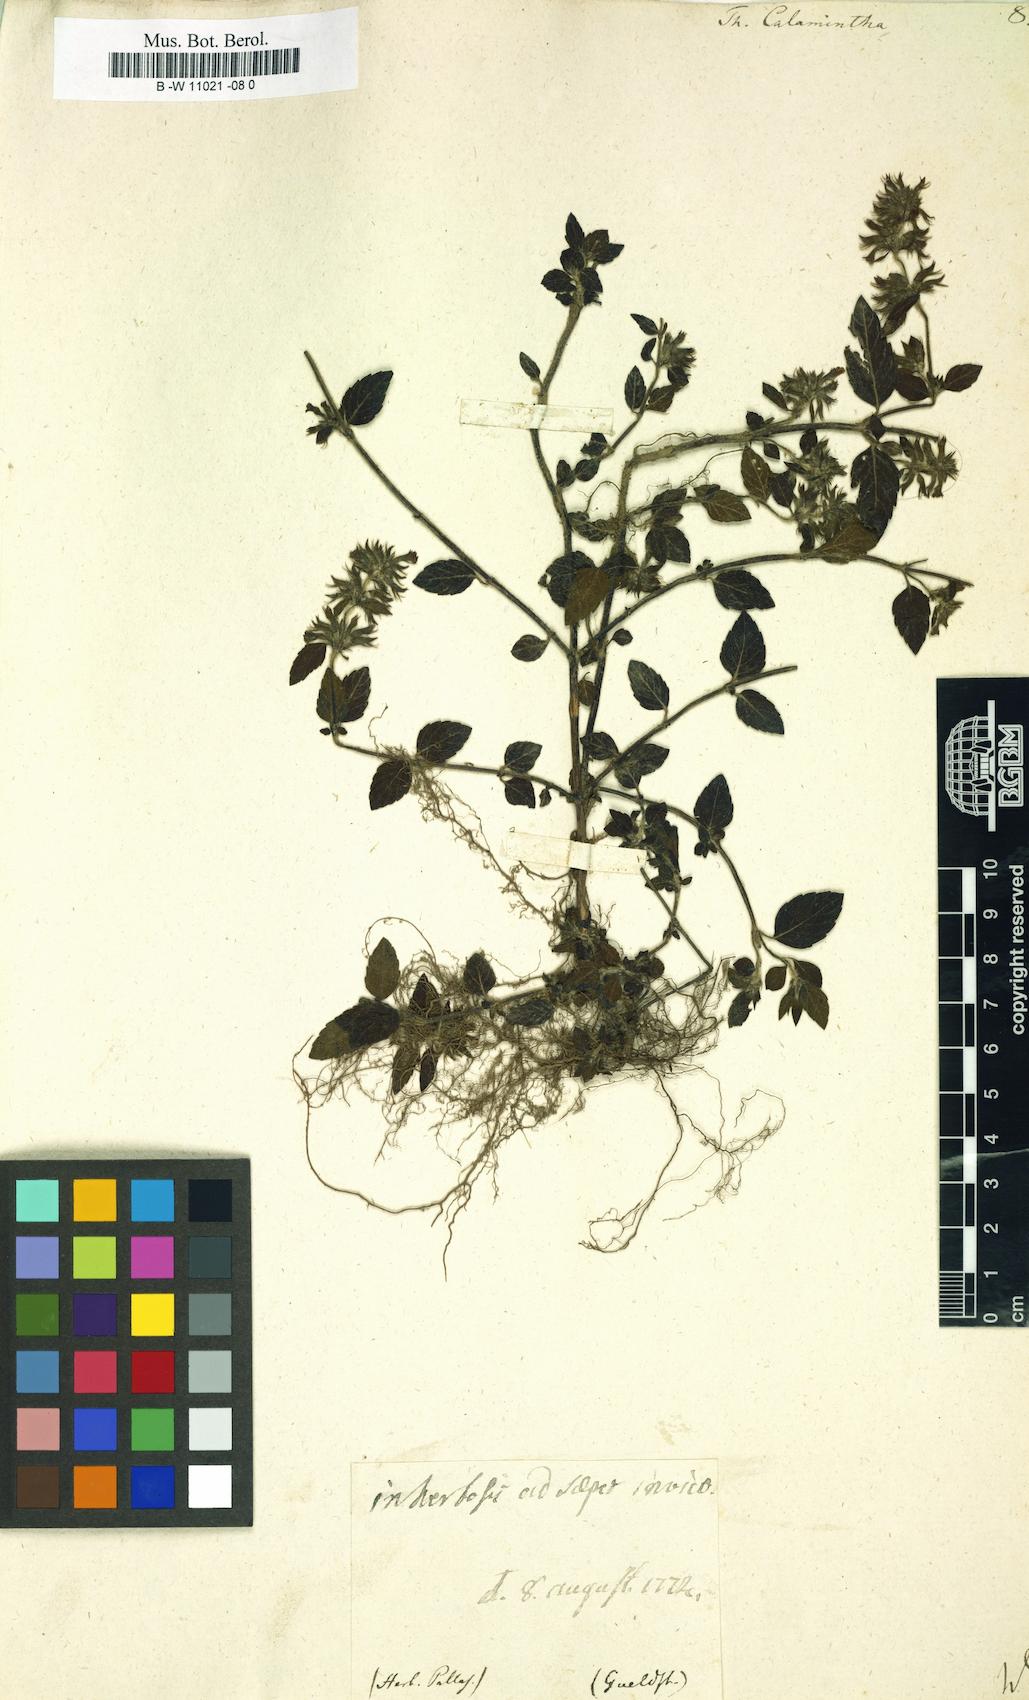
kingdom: Plantae
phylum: Tracheophyta
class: Magnoliopsida
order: Lamiales
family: Lamiaceae
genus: Clinopodium
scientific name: Clinopodium nepeta
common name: Lesser calamint
